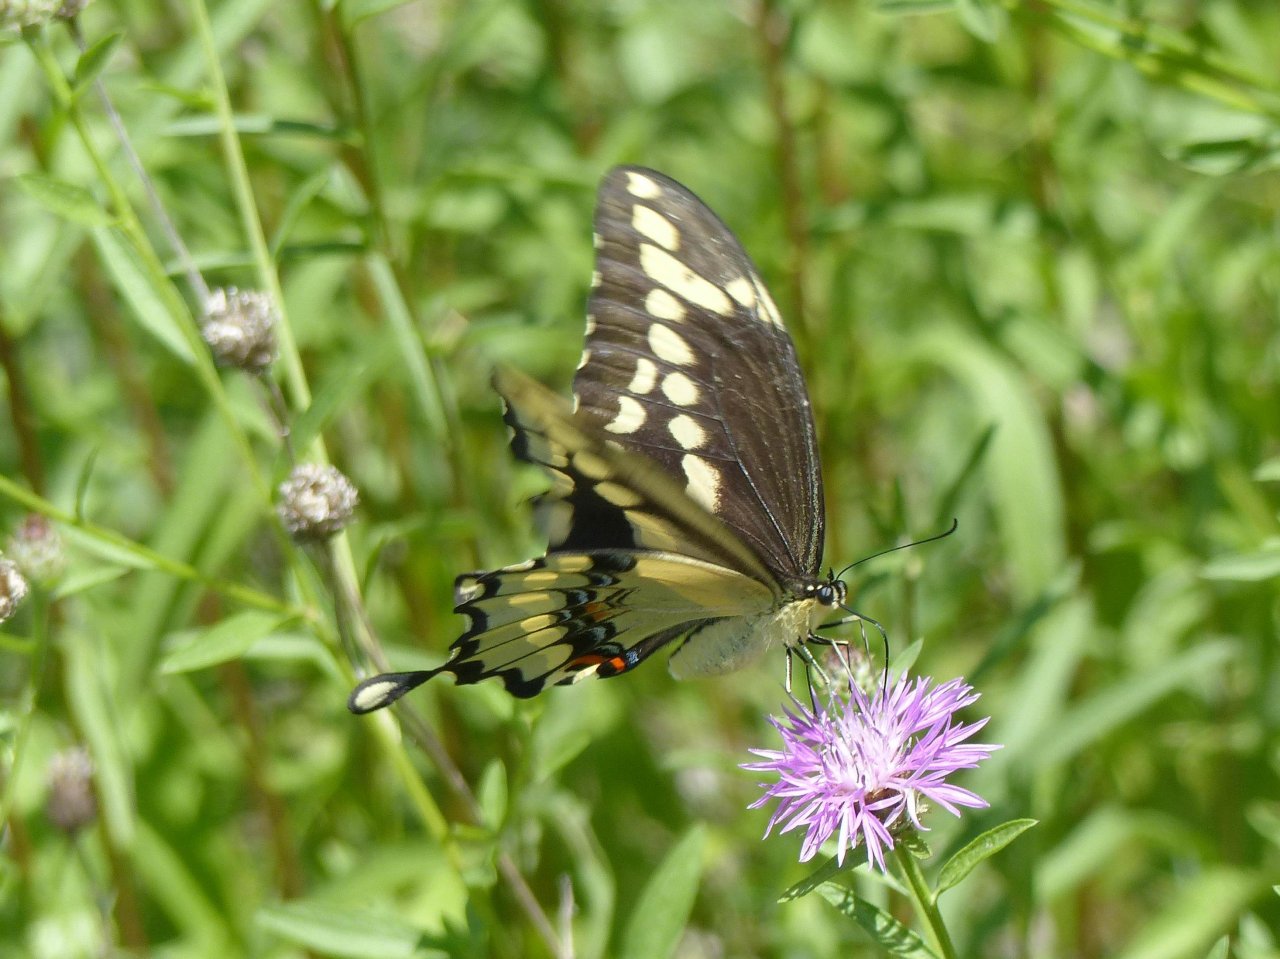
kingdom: Animalia
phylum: Arthropoda
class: Insecta
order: Lepidoptera
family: Papilionidae
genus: Papilio
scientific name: Papilio cresphontes
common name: Eastern Giant Swallowtail
